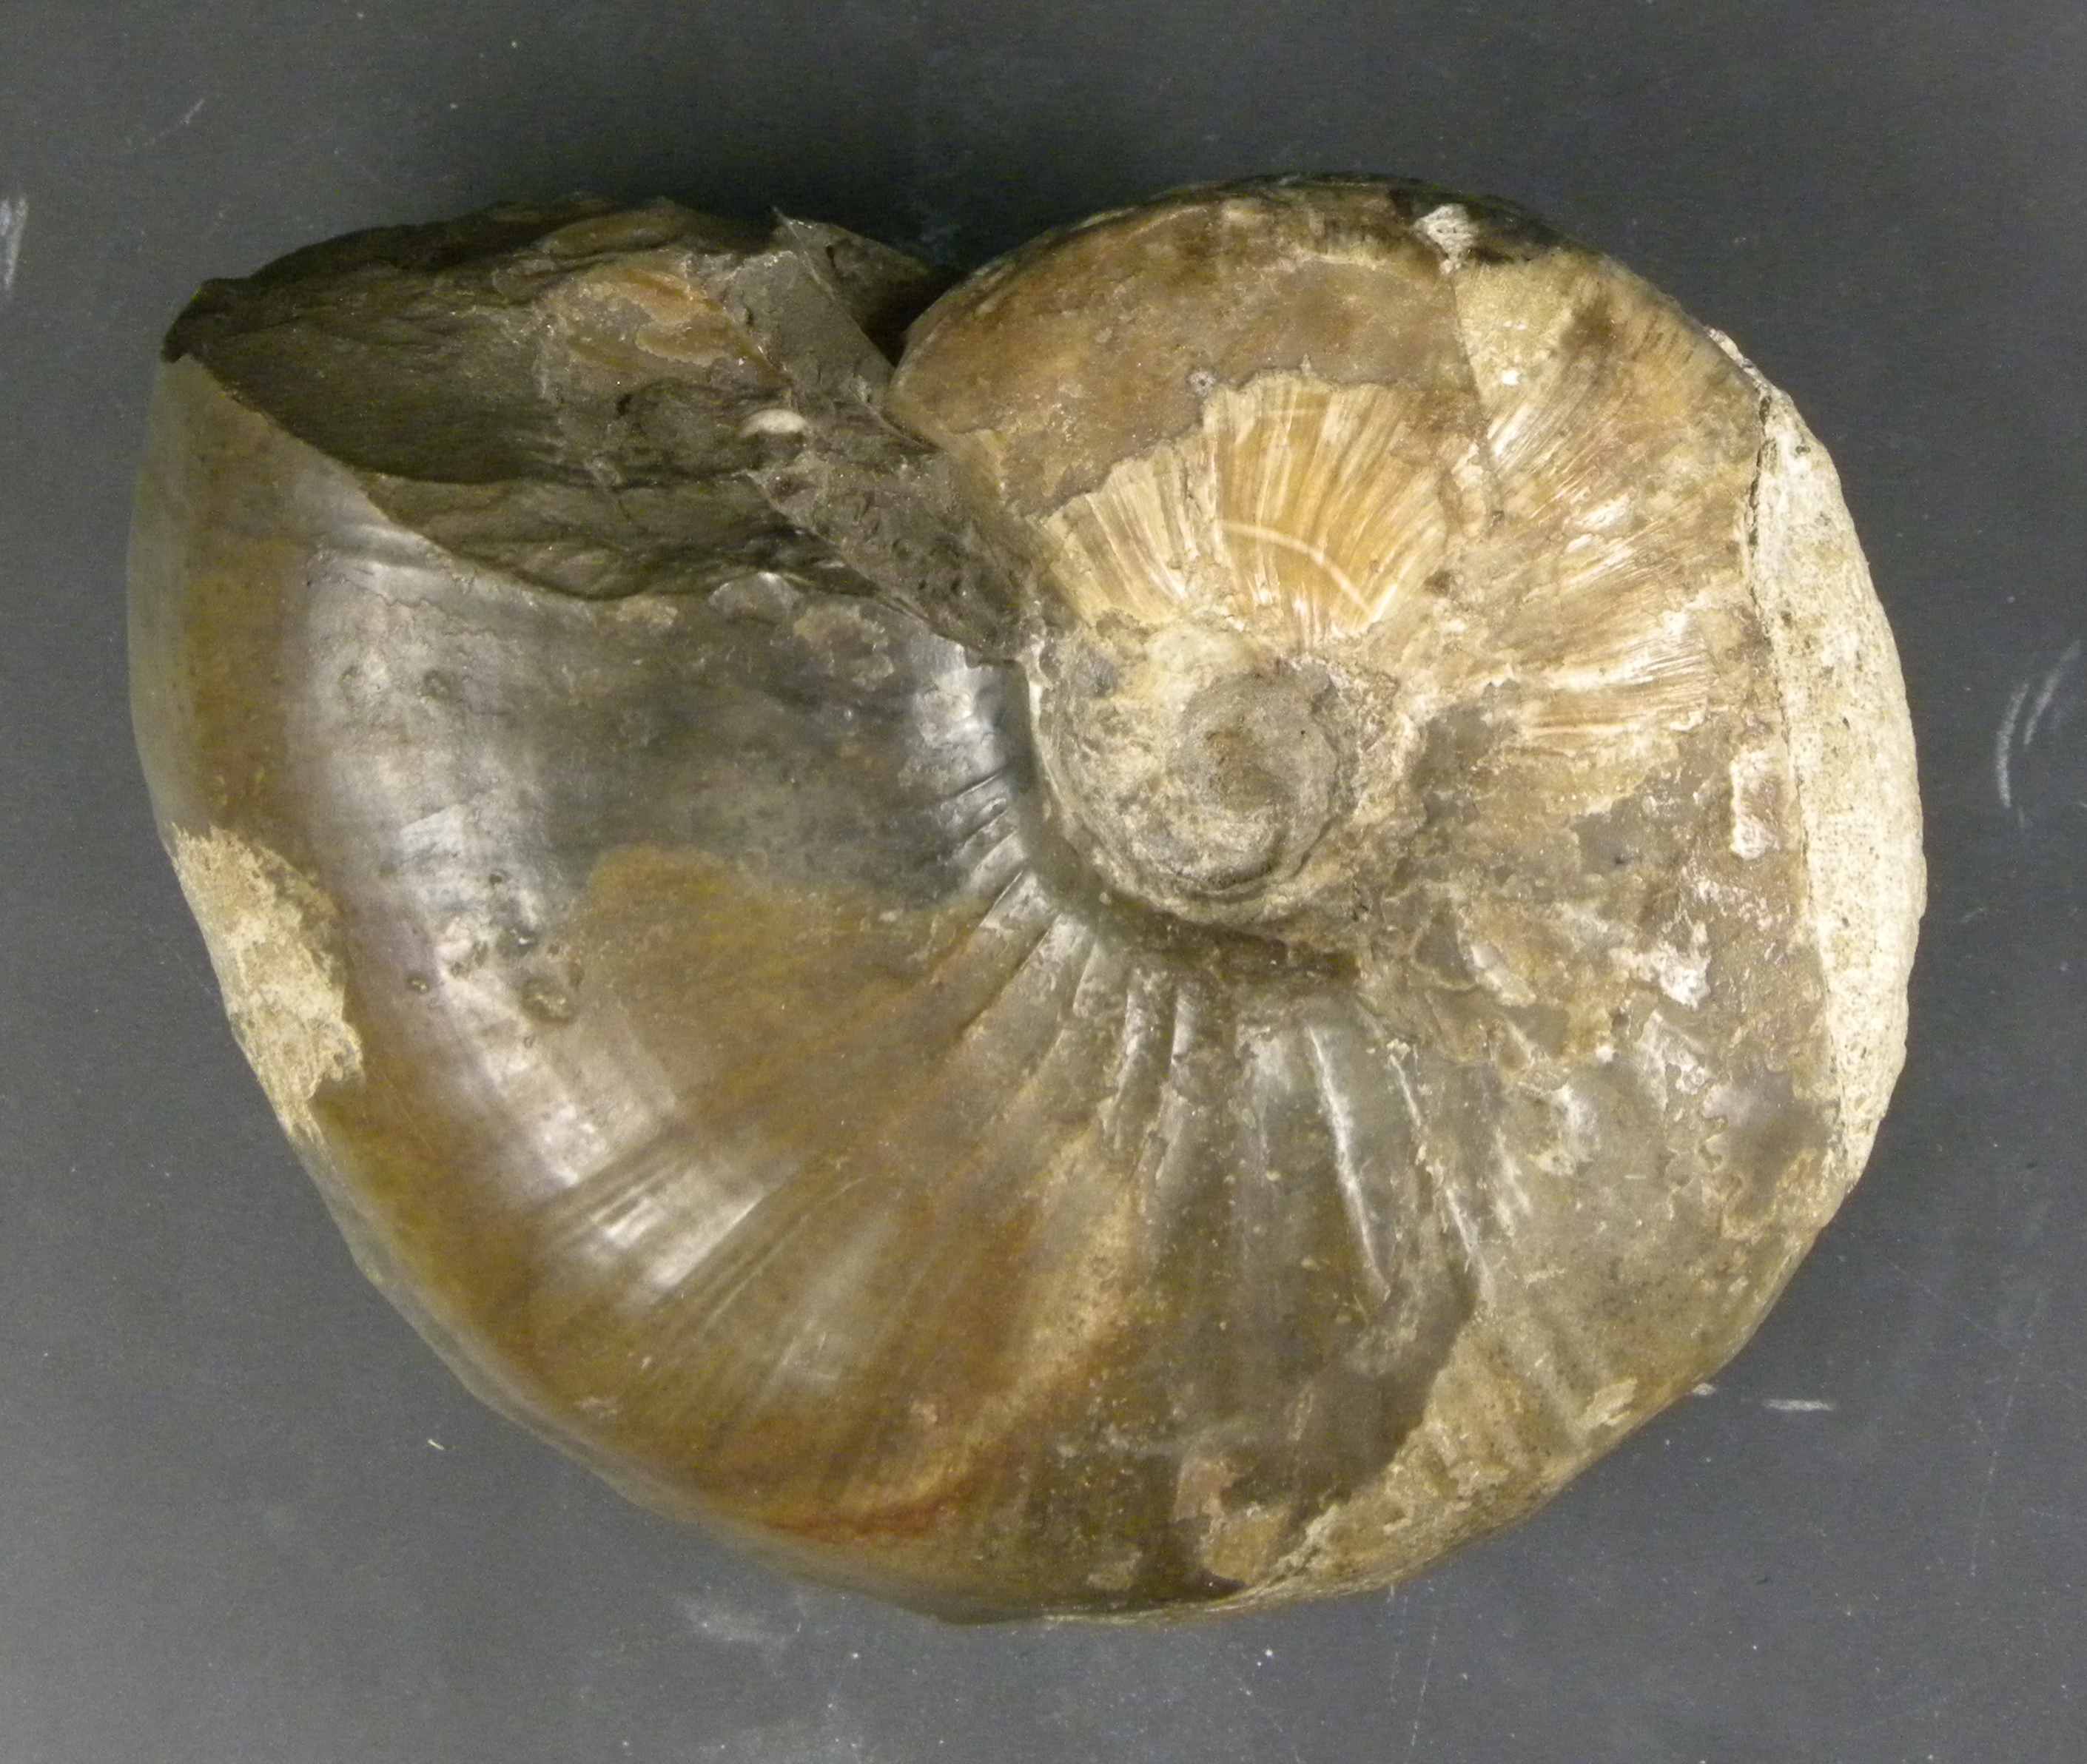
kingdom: Animalia
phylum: Mollusca
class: Cephalopoda
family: Hildoceratidae
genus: Frechiella
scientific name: Frechiella subcarinata
